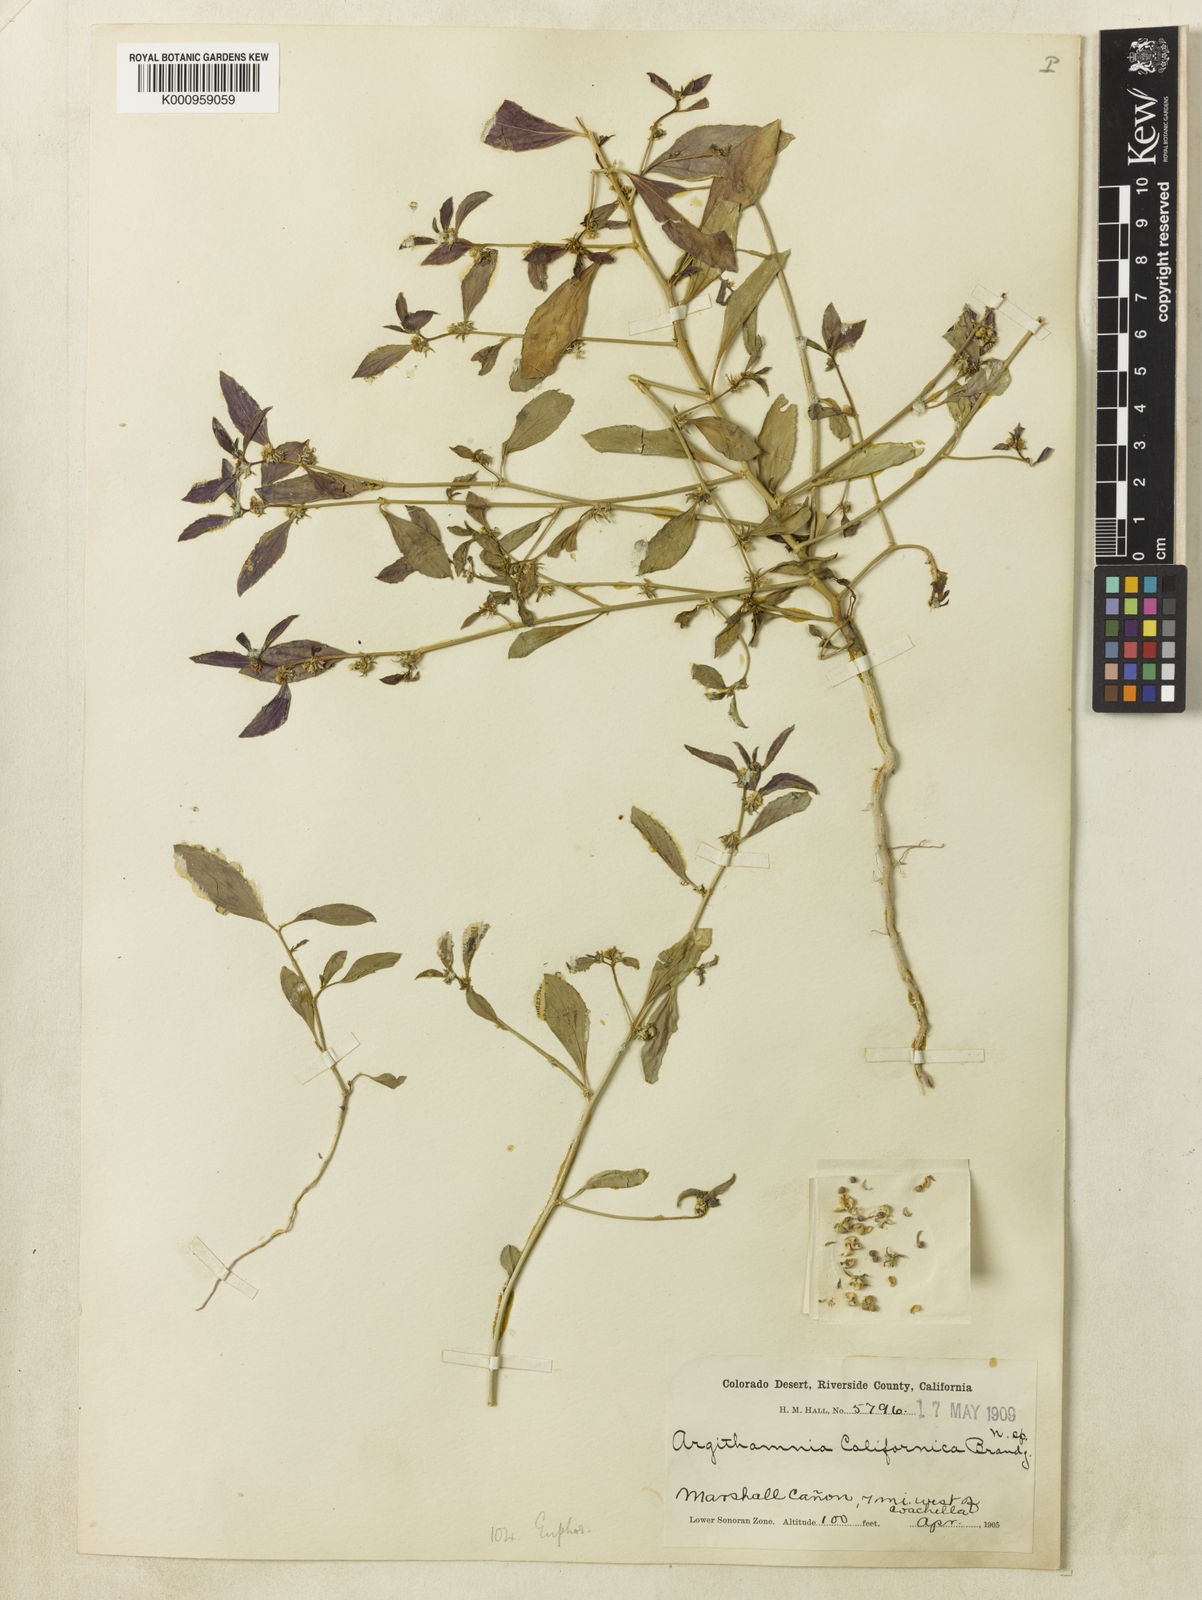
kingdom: Plantae
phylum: Tracheophyta
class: Magnoliopsida
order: Malpighiales
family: Euphorbiaceae
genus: Ditaxis
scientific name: Ditaxis serrata
